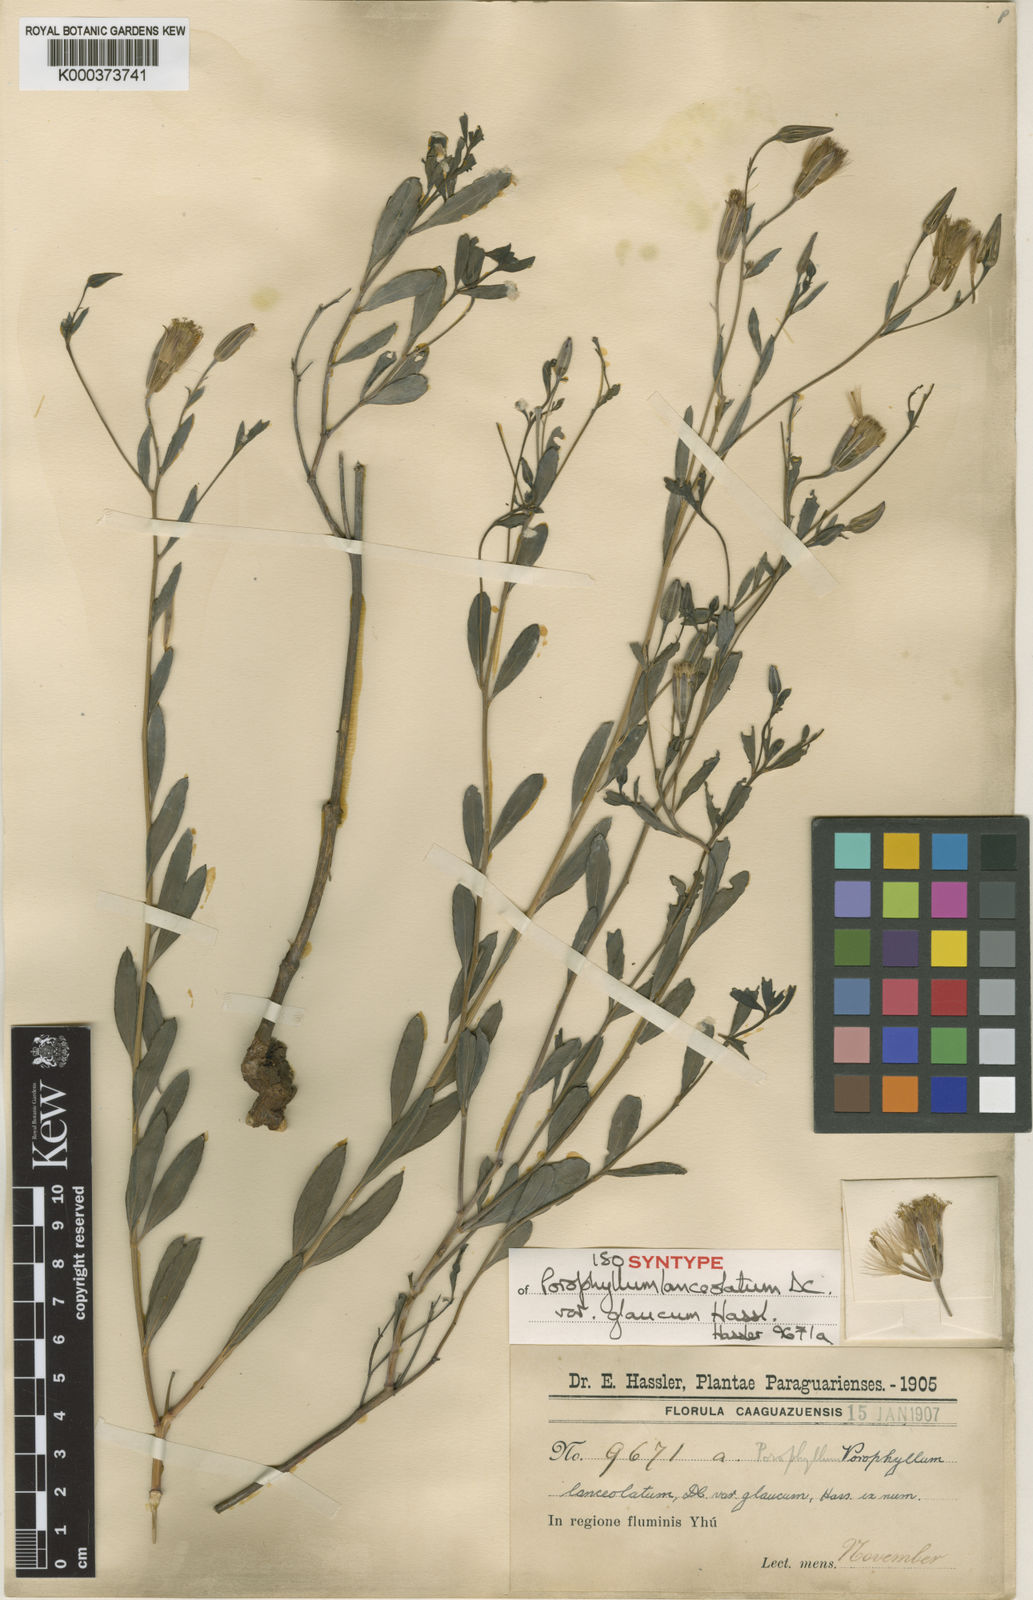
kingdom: Plantae
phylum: Tracheophyta
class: Magnoliopsida
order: Asterales
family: Asteraceae
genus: Porophyllum
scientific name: Porophyllum lanceolatum
